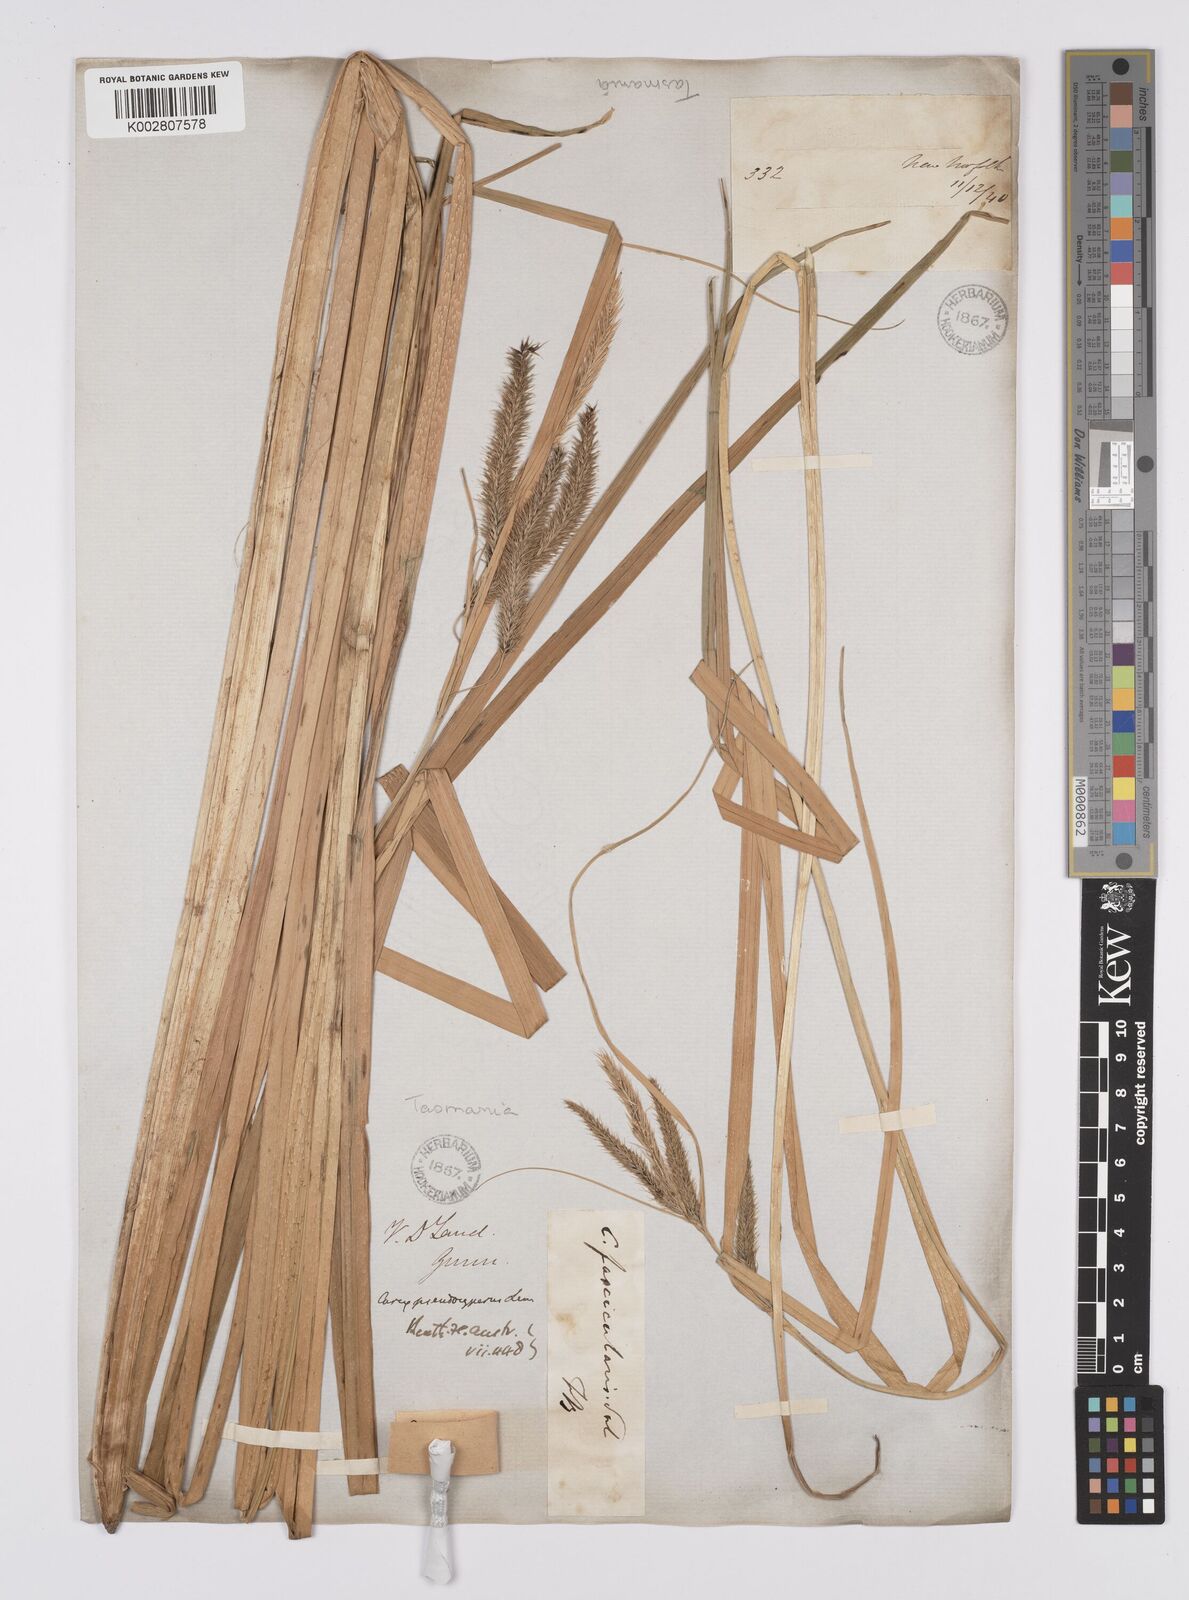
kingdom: Plantae
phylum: Tracheophyta
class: Liliopsida
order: Poales
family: Cyperaceae
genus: Carex
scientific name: Carex fascicularis
